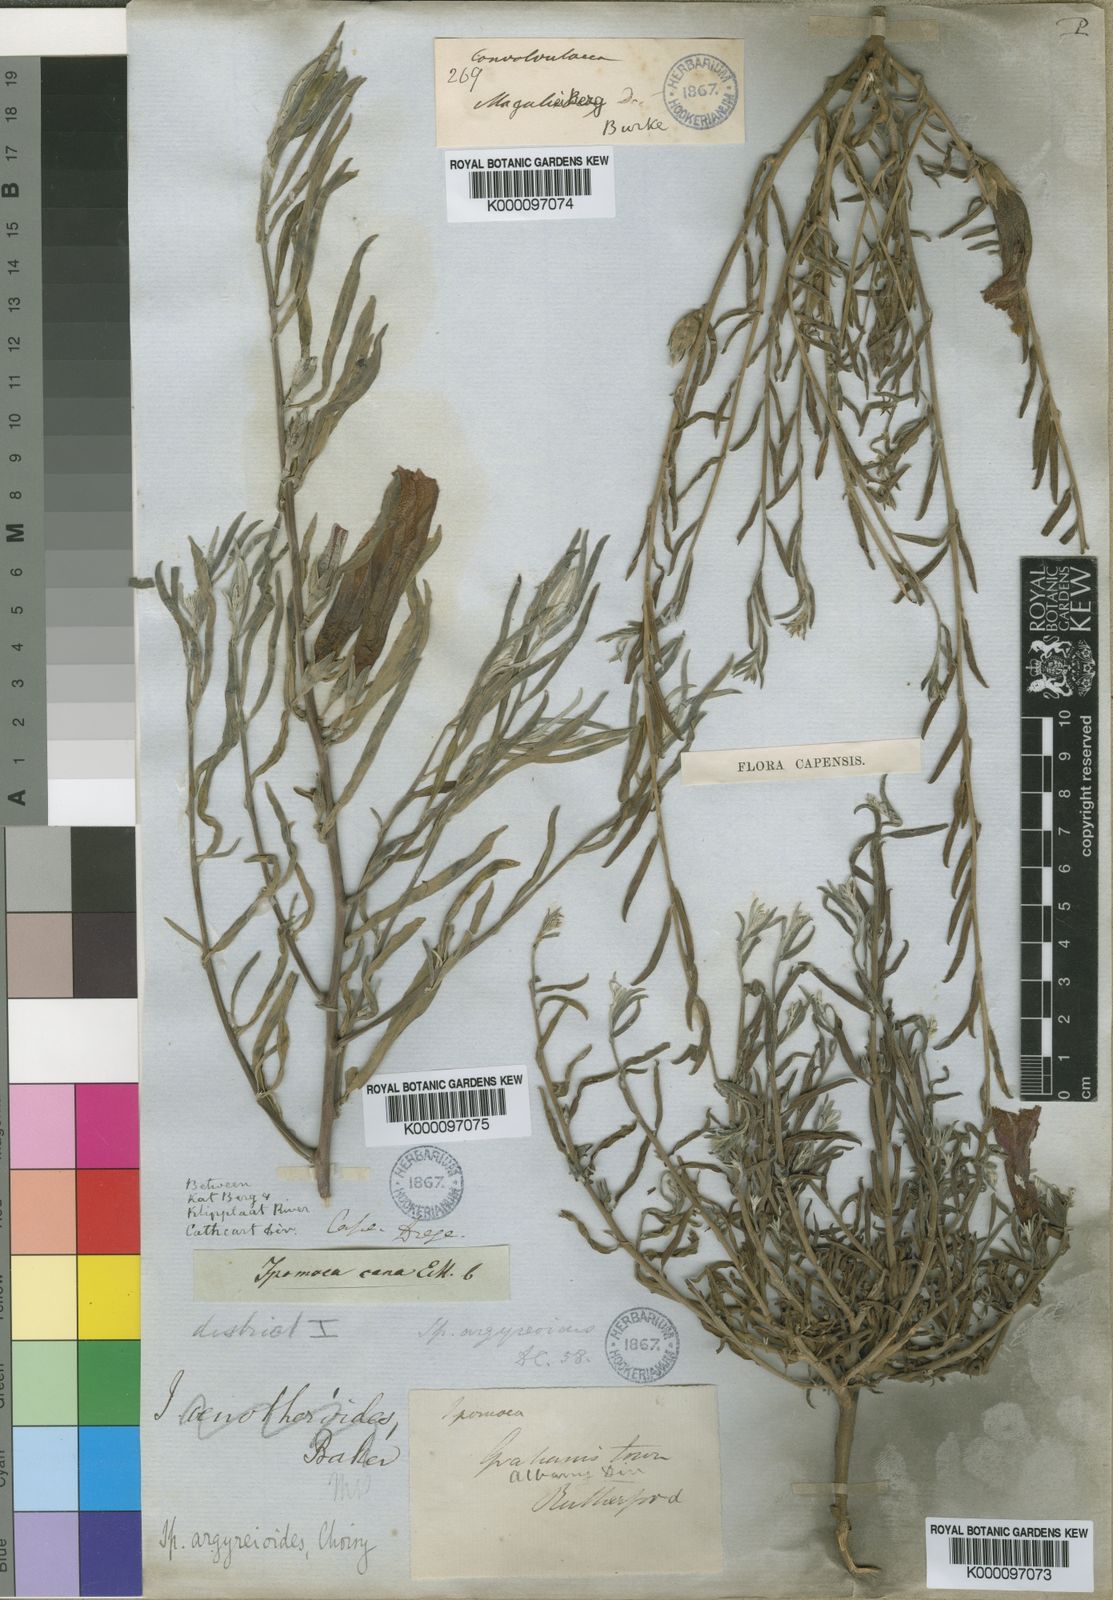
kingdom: Plantae
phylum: Tracheophyta
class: Magnoliopsida
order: Solanales
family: Convolvulaceae
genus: Ipomoea
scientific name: Ipomoea oenotheroides
